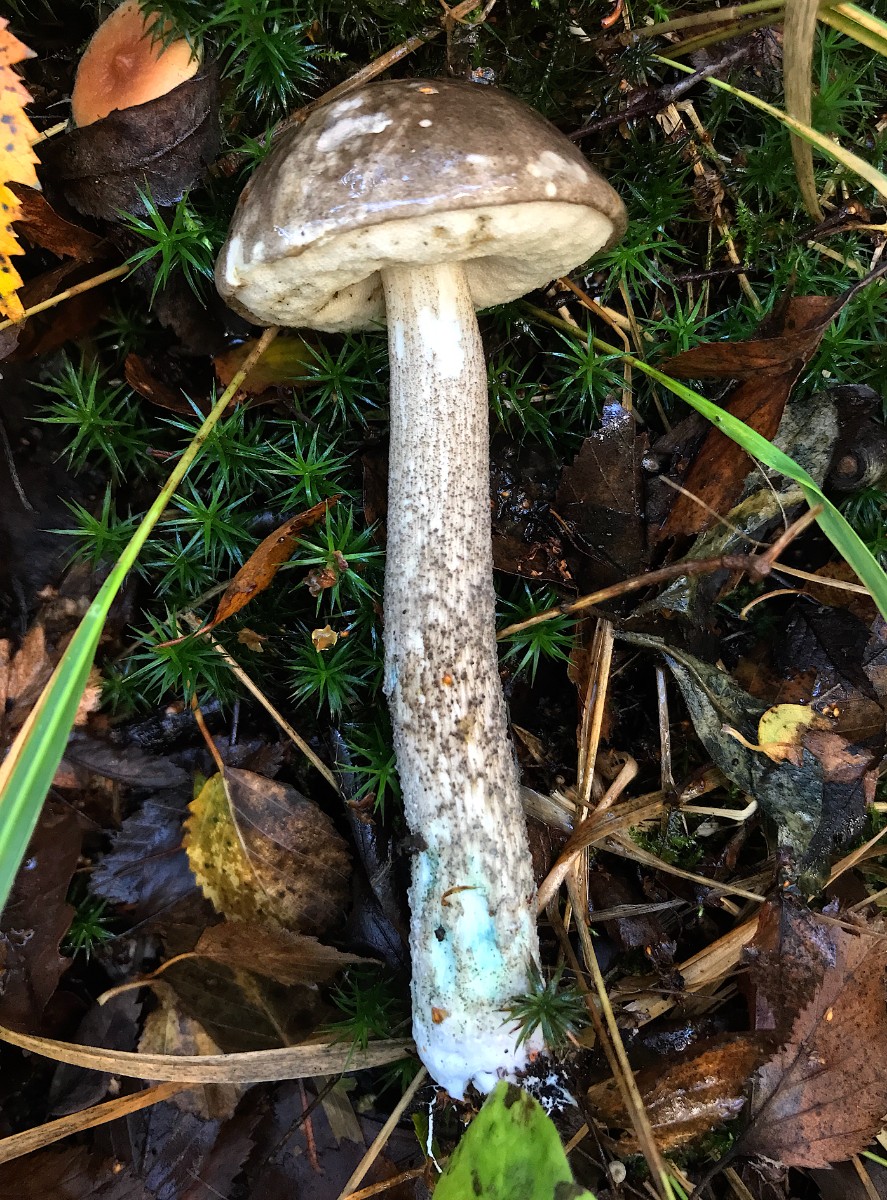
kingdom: Fungi
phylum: Basidiomycota
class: Agaricomycetes
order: Boletales
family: Boletaceae
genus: Leccinum
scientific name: Leccinum variicolor
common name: flammet skælrørhat
